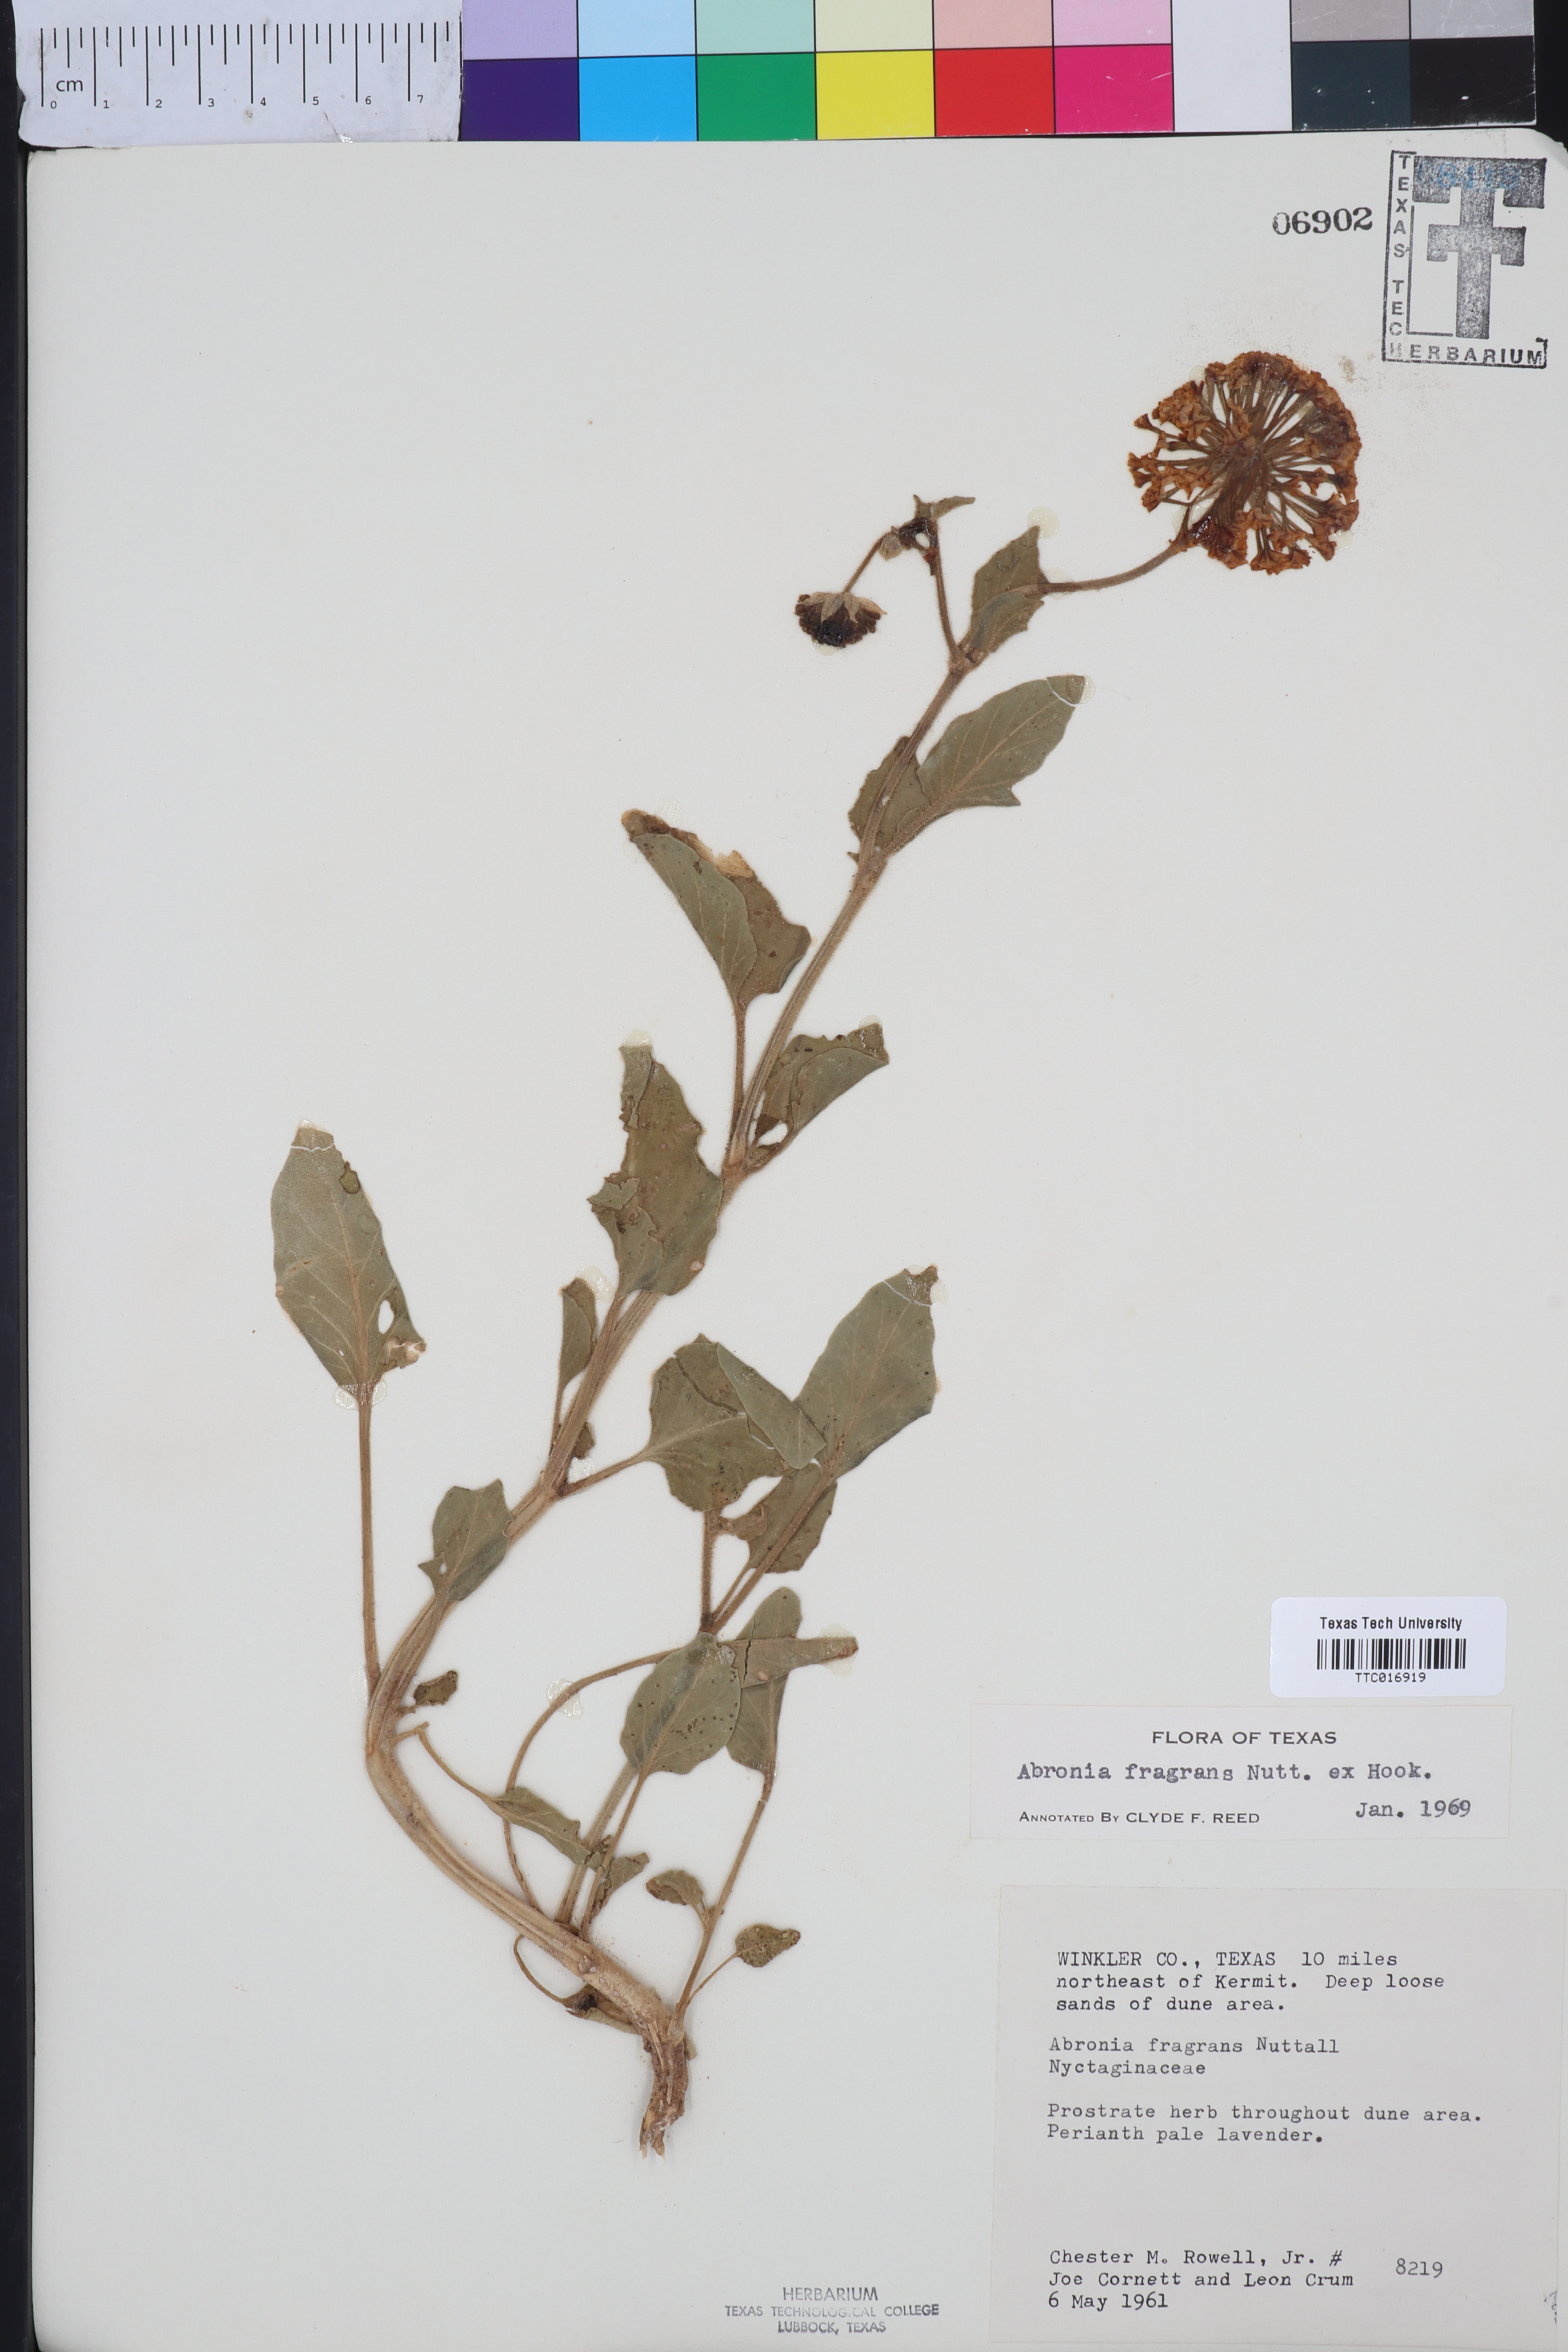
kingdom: Plantae
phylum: Tracheophyta
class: Magnoliopsida
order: Caryophyllales
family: Nyctaginaceae
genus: Abronia
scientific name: Abronia fragrans
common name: Fragrant sand-verbena
